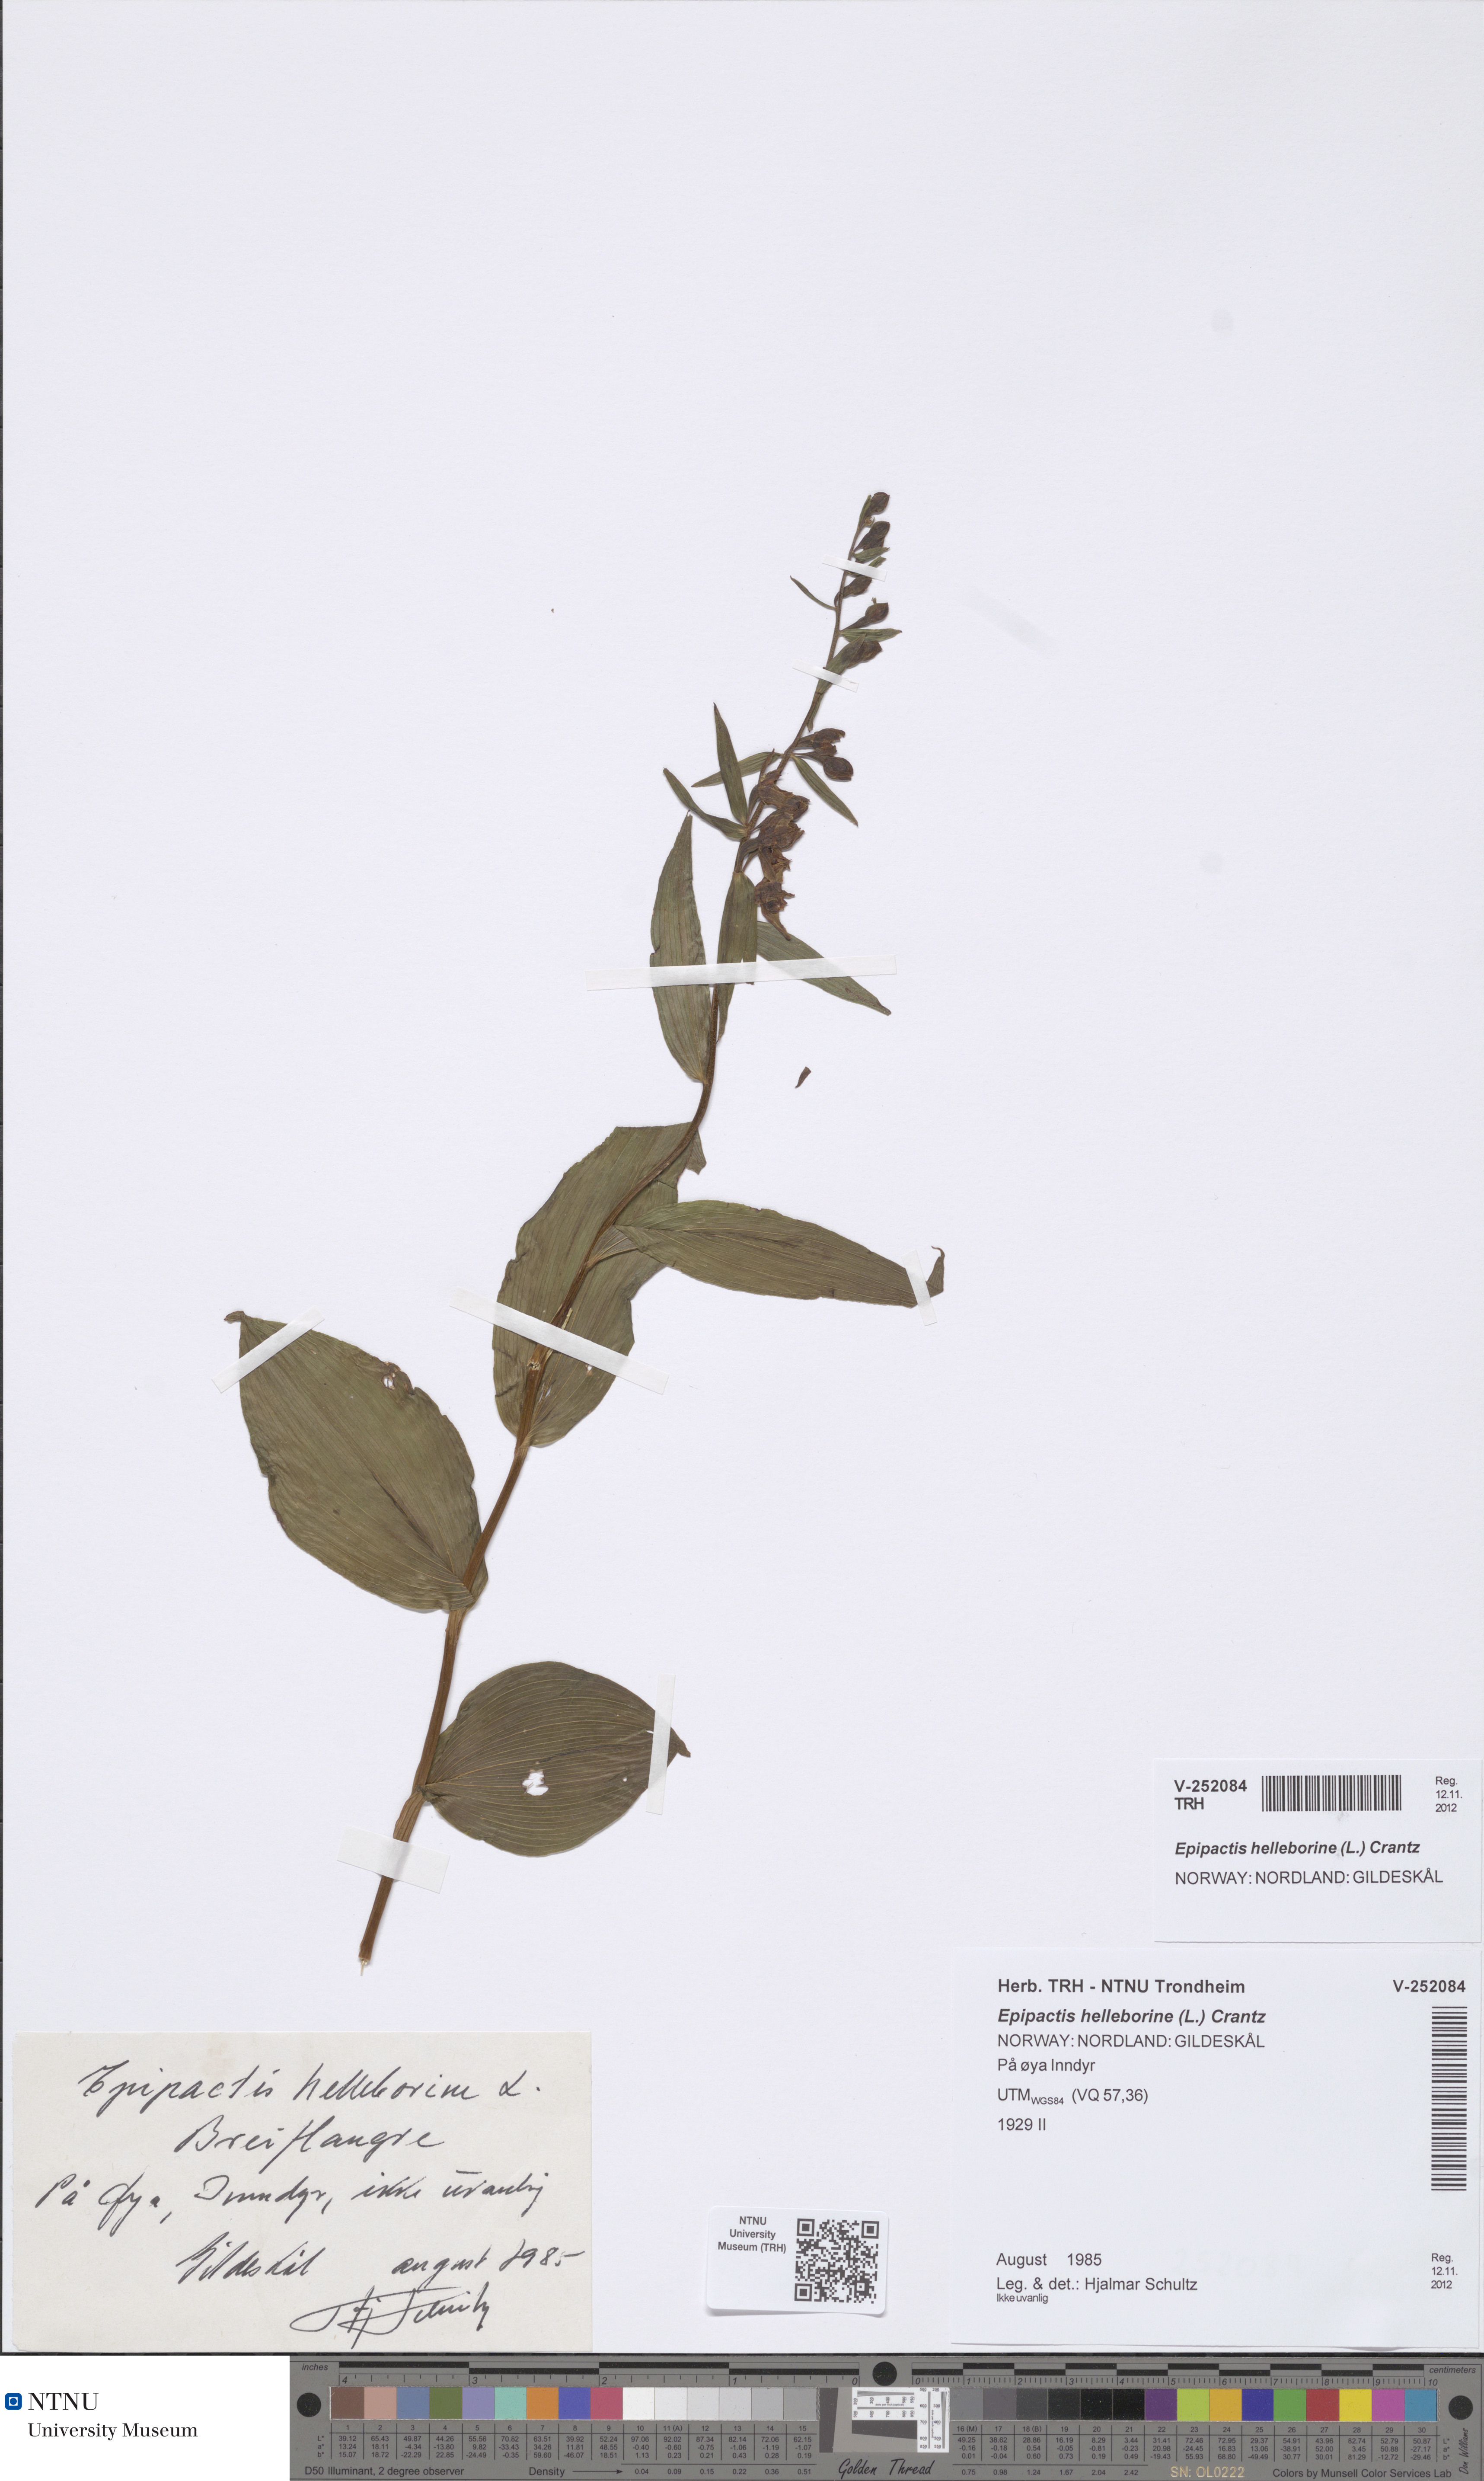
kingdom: Plantae
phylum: Tracheophyta
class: Liliopsida
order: Asparagales
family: Orchidaceae
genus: Epipactis
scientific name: Epipactis helleborine
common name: Broad-leaved helleborine
